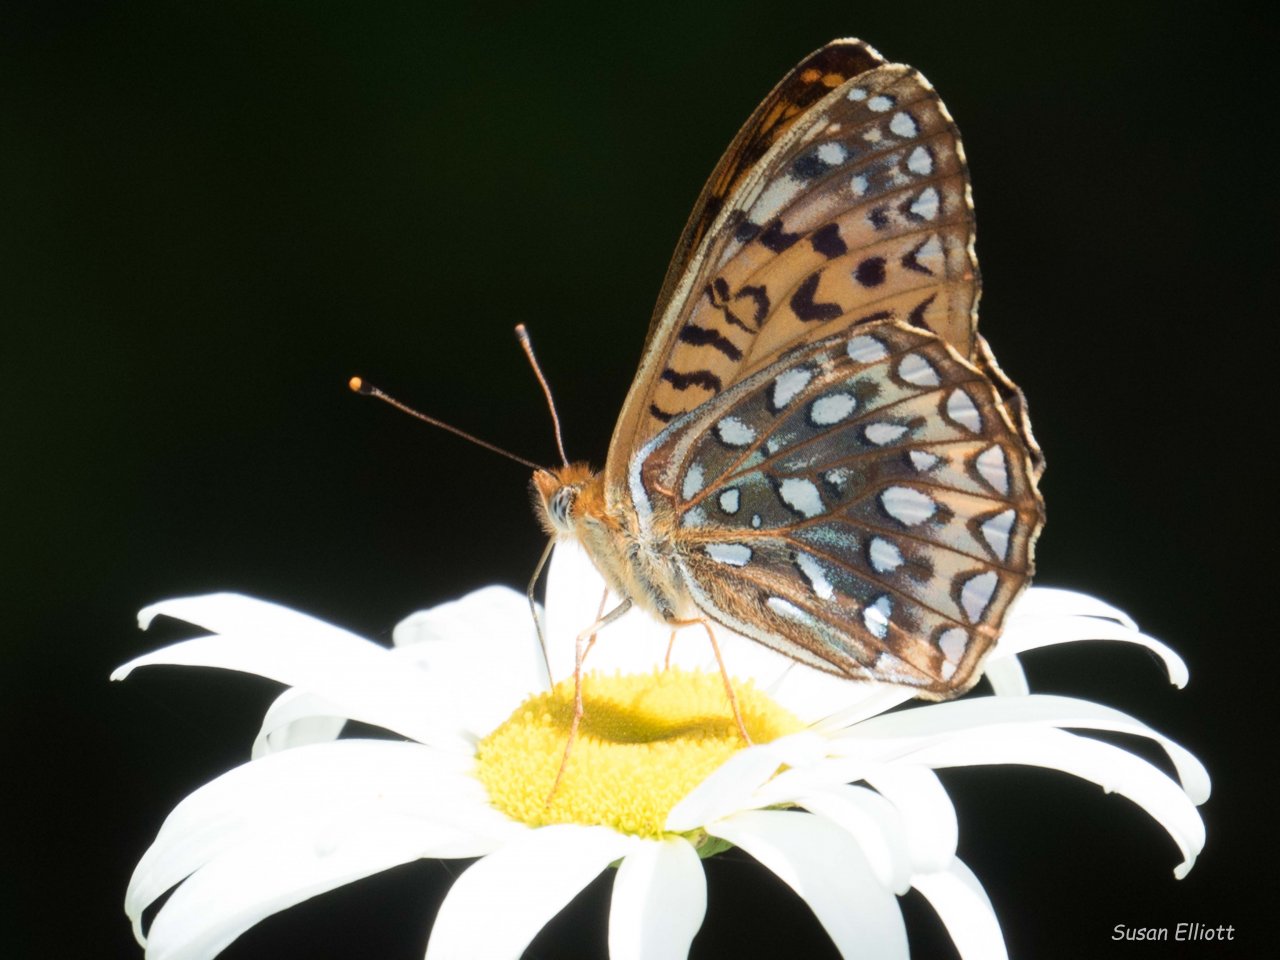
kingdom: Animalia
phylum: Arthropoda
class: Insecta
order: Lepidoptera
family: Nymphalidae
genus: Speyeria
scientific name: Speyeria atlantis
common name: Atlantis Fritillary
